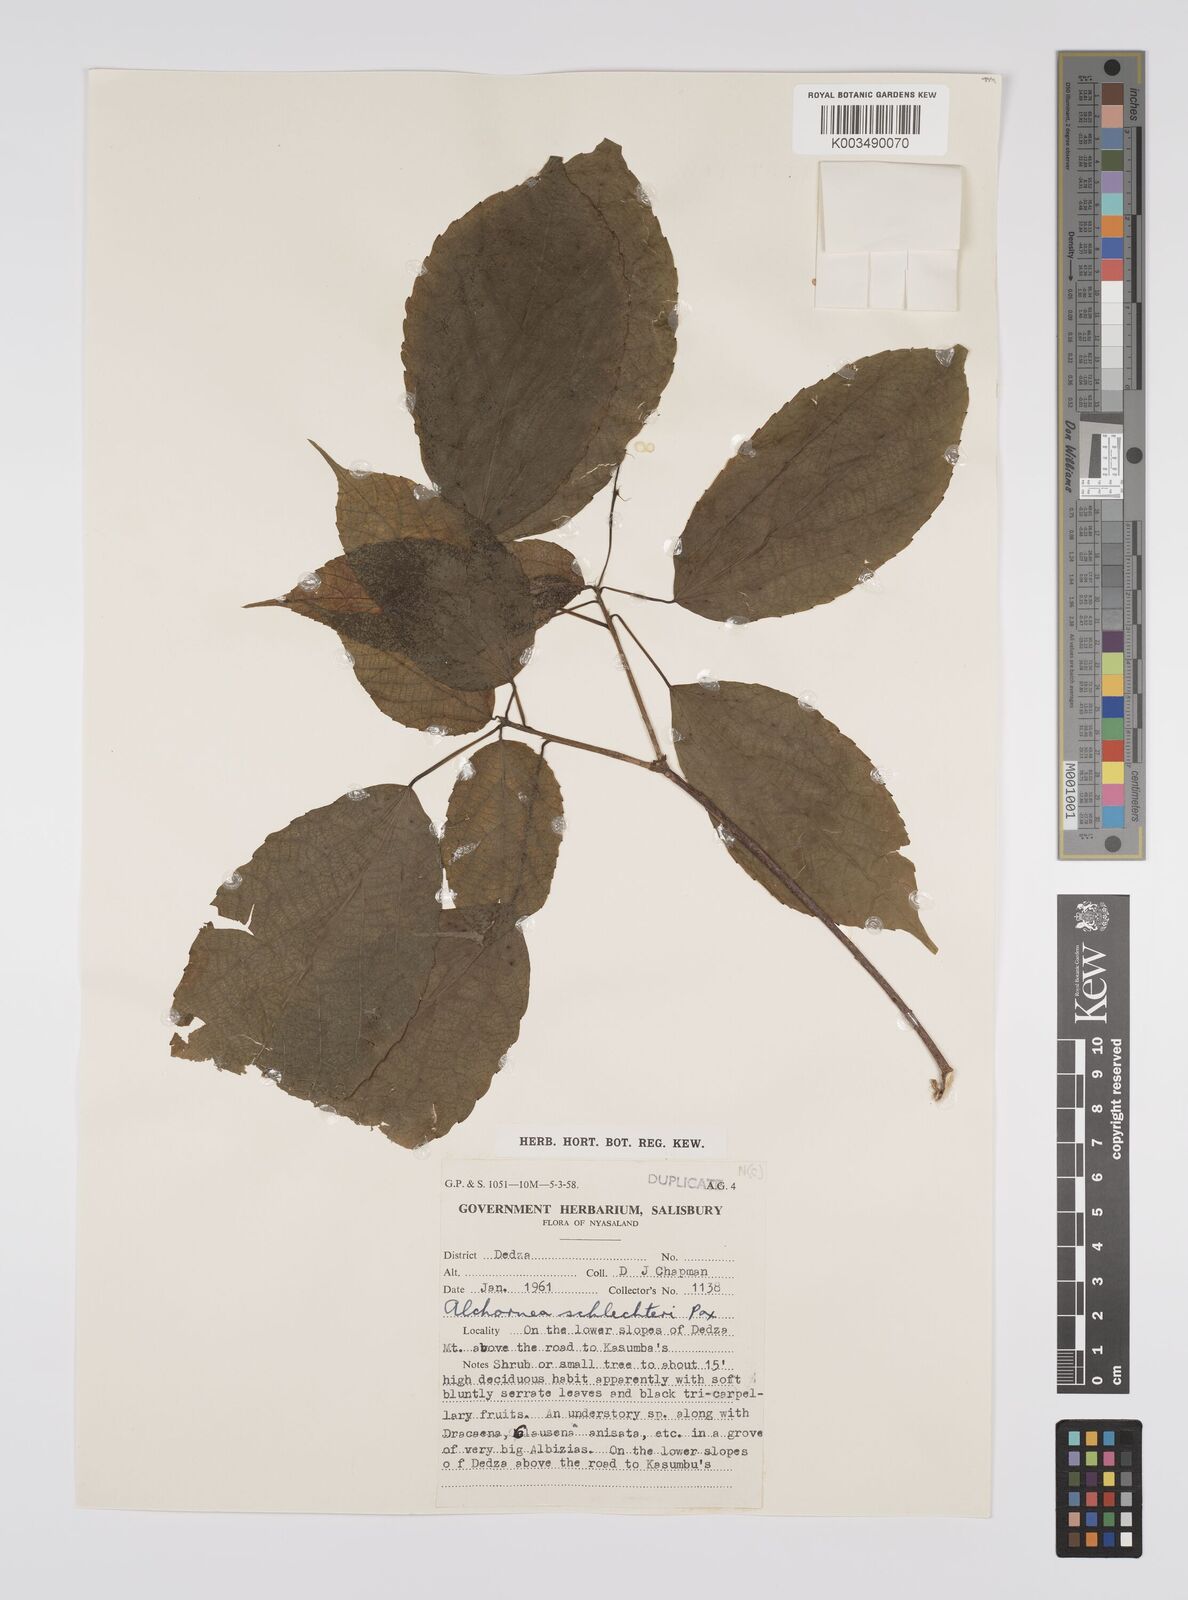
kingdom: Plantae
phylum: Tracheophyta
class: Magnoliopsida
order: Malpighiales
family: Euphorbiaceae
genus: Alchornea
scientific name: Alchornea laxiflora
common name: Lowveld bead-string
